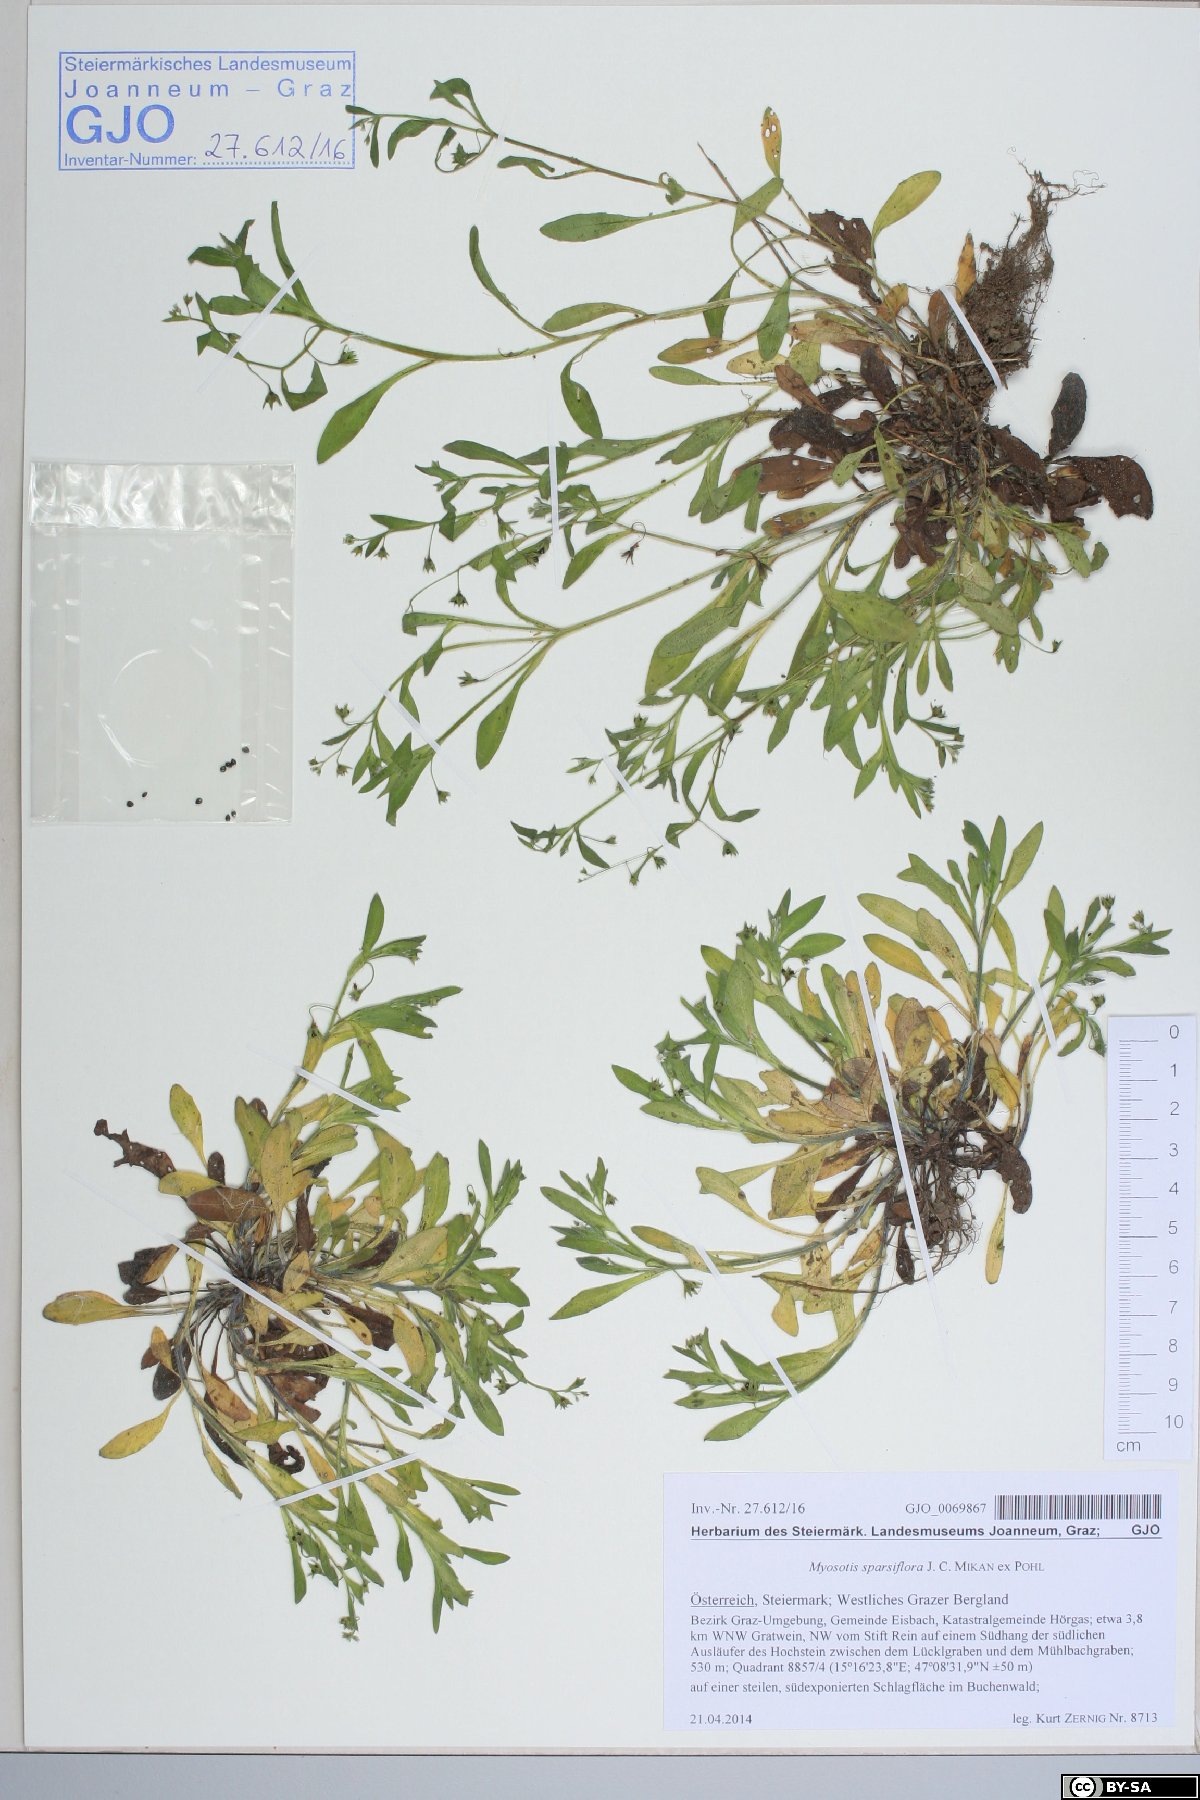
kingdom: Plantae
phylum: Tracheophyta
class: Magnoliopsida
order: Boraginales
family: Boraginaceae
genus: Myosotis
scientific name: Myosotis sparsiflora
